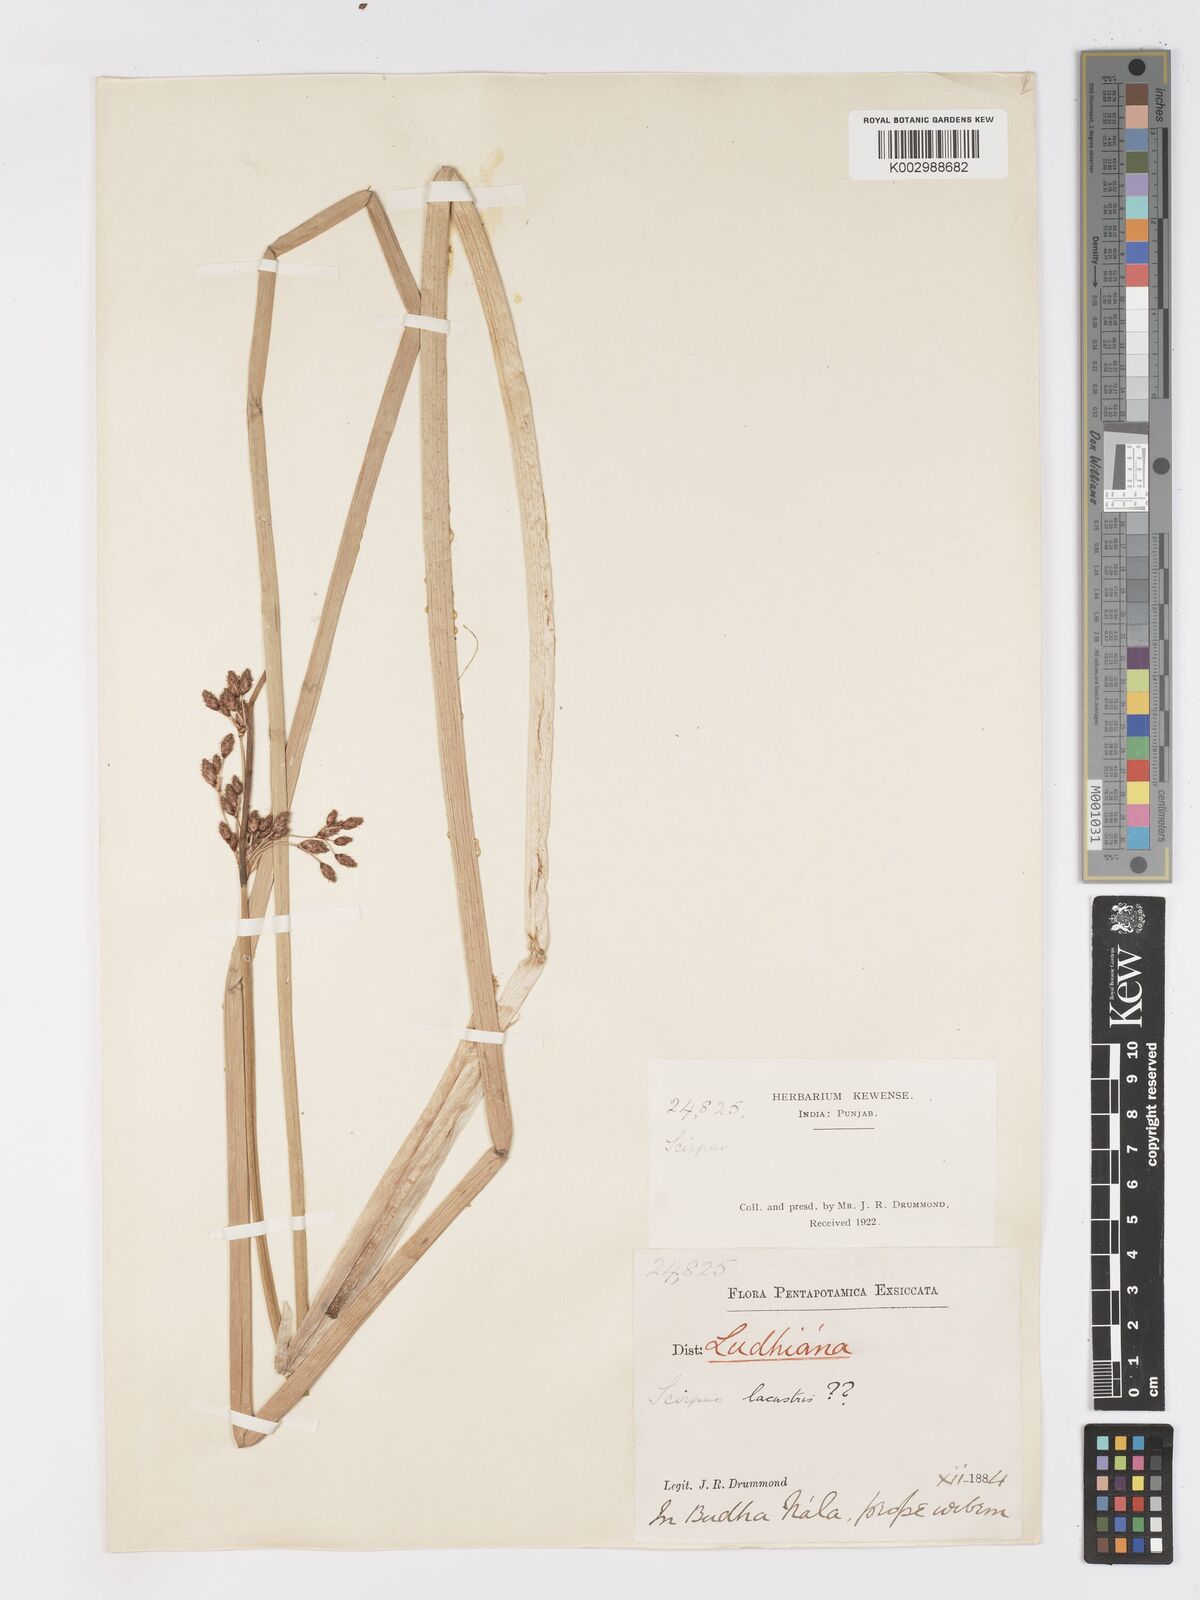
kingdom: Plantae
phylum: Tracheophyta
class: Liliopsida
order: Poales
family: Cyperaceae
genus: Schoenoplectus
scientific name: Schoenoplectus lacustris
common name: Common club-rush
